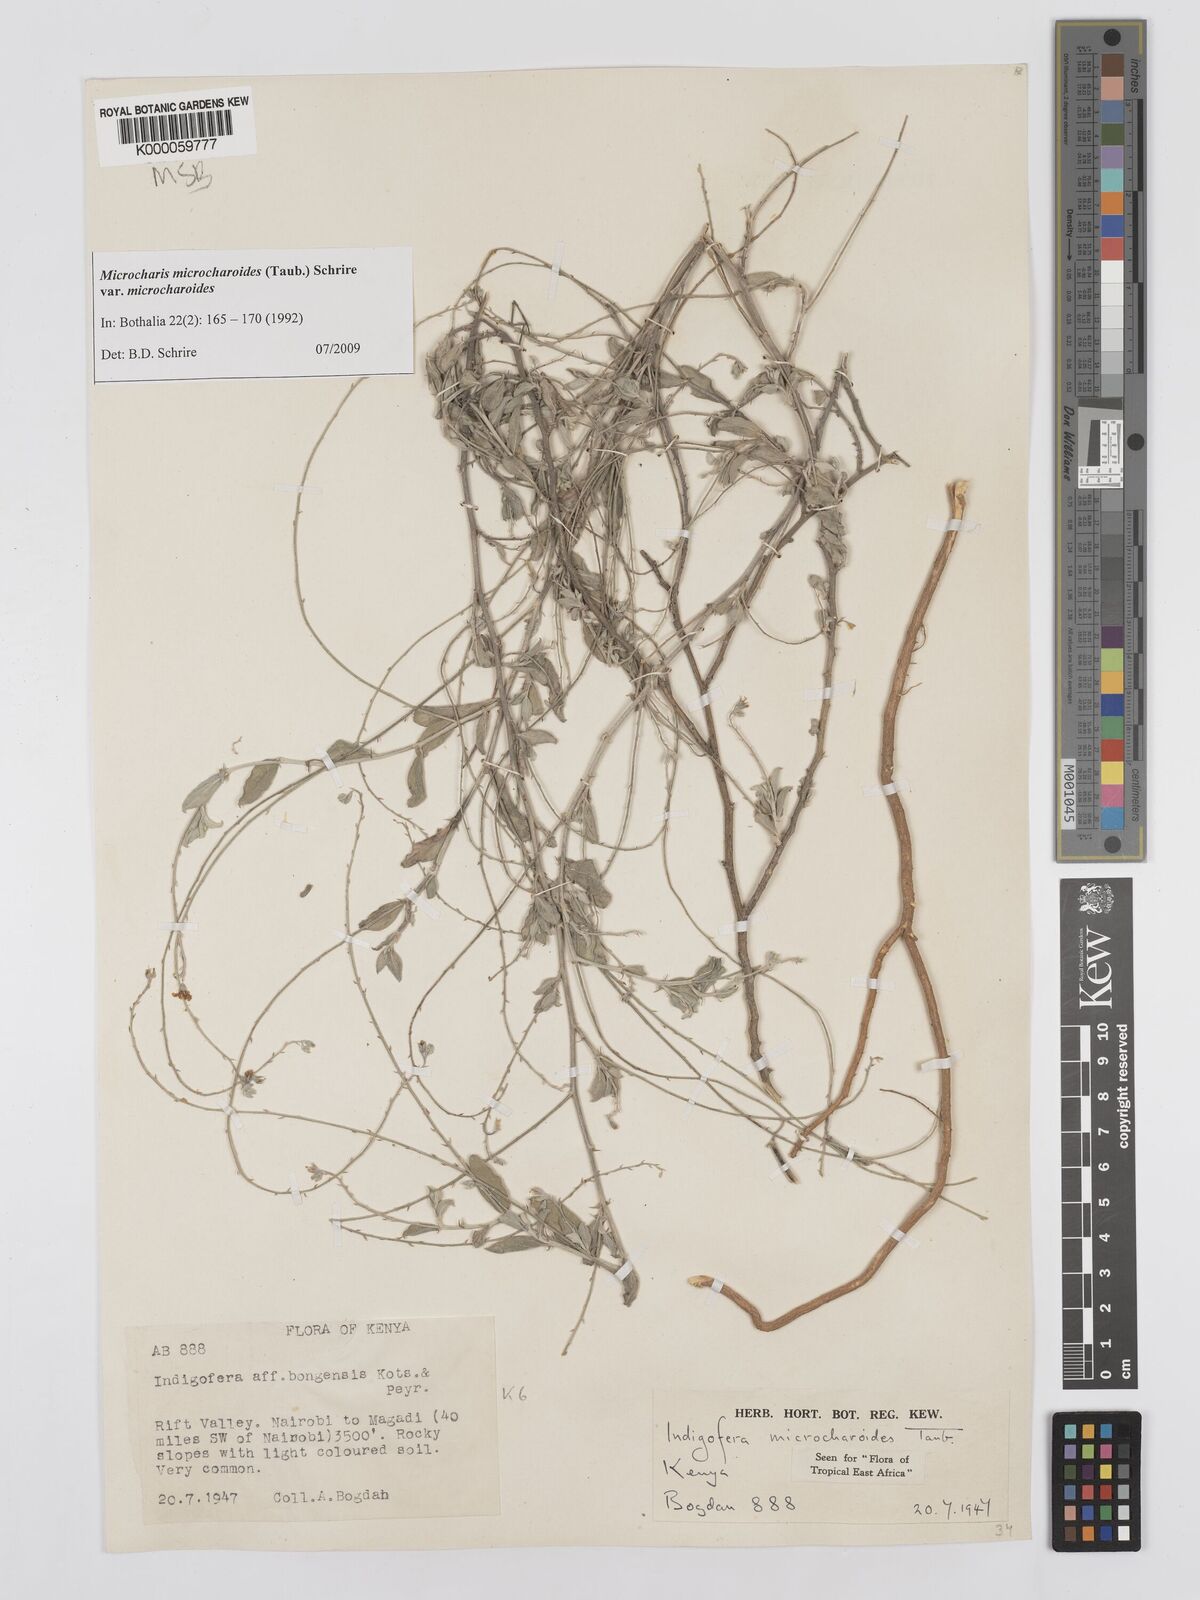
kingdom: Plantae
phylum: Tracheophyta
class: Magnoliopsida
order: Fabales
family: Fabaceae
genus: Microcharis
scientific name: Microcharis microcharoides
